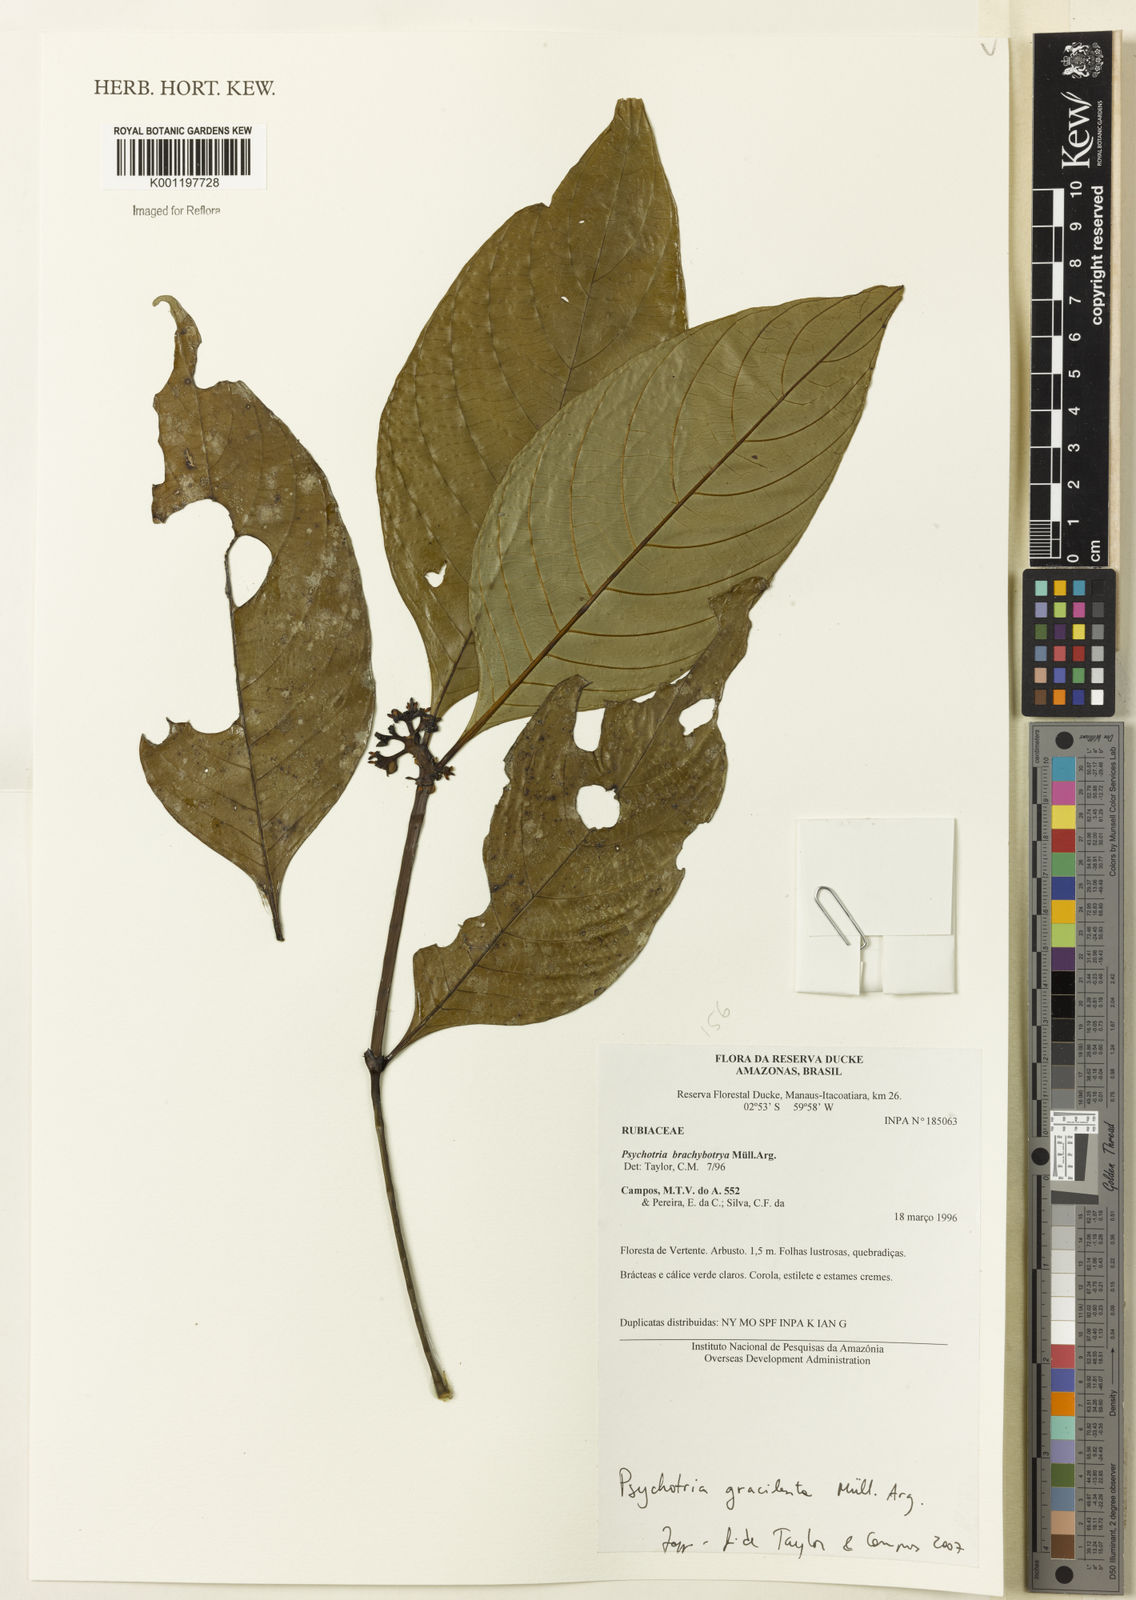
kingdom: Plantae
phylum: Tracheophyta
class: Magnoliopsida
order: Gentianales
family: Rubiaceae
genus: Psychotria
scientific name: Psychotria
